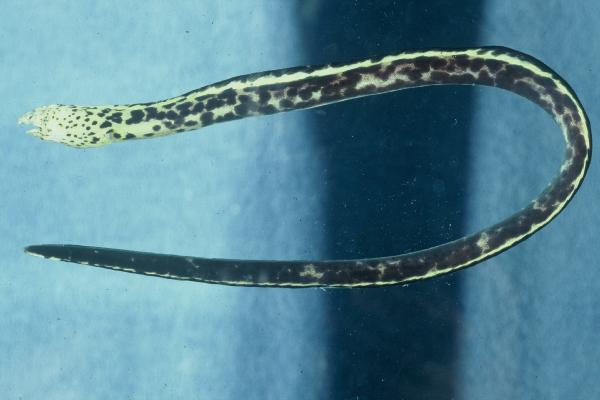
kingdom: Animalia
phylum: Chordata
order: Anguilliformes
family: Ophichthidae
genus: Callechelys
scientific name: Callechelys marmorata
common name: Marbled snake eel
